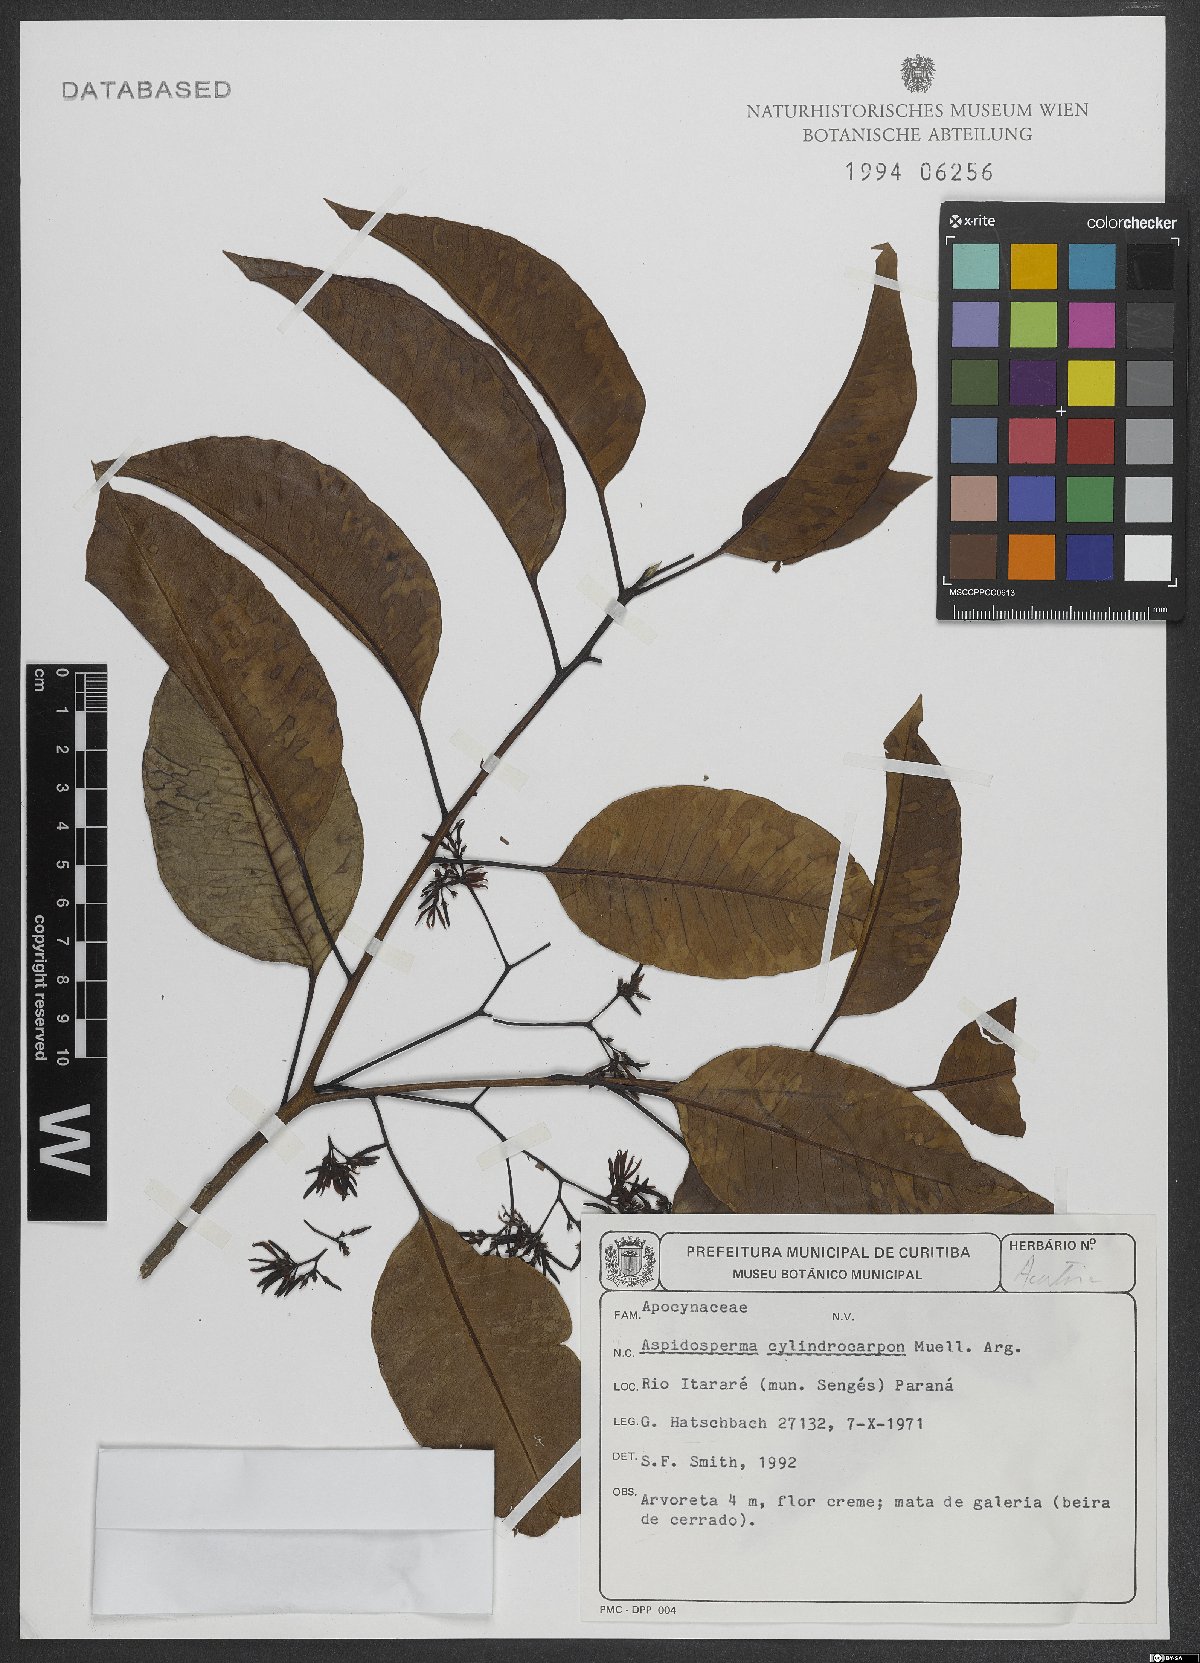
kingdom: Plantae
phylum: Tracheophyta
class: Magnoliopsida
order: Gentianales
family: Apocynaceae
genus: Aspidosperma
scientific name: Aspidosperma cylindrocarpon
